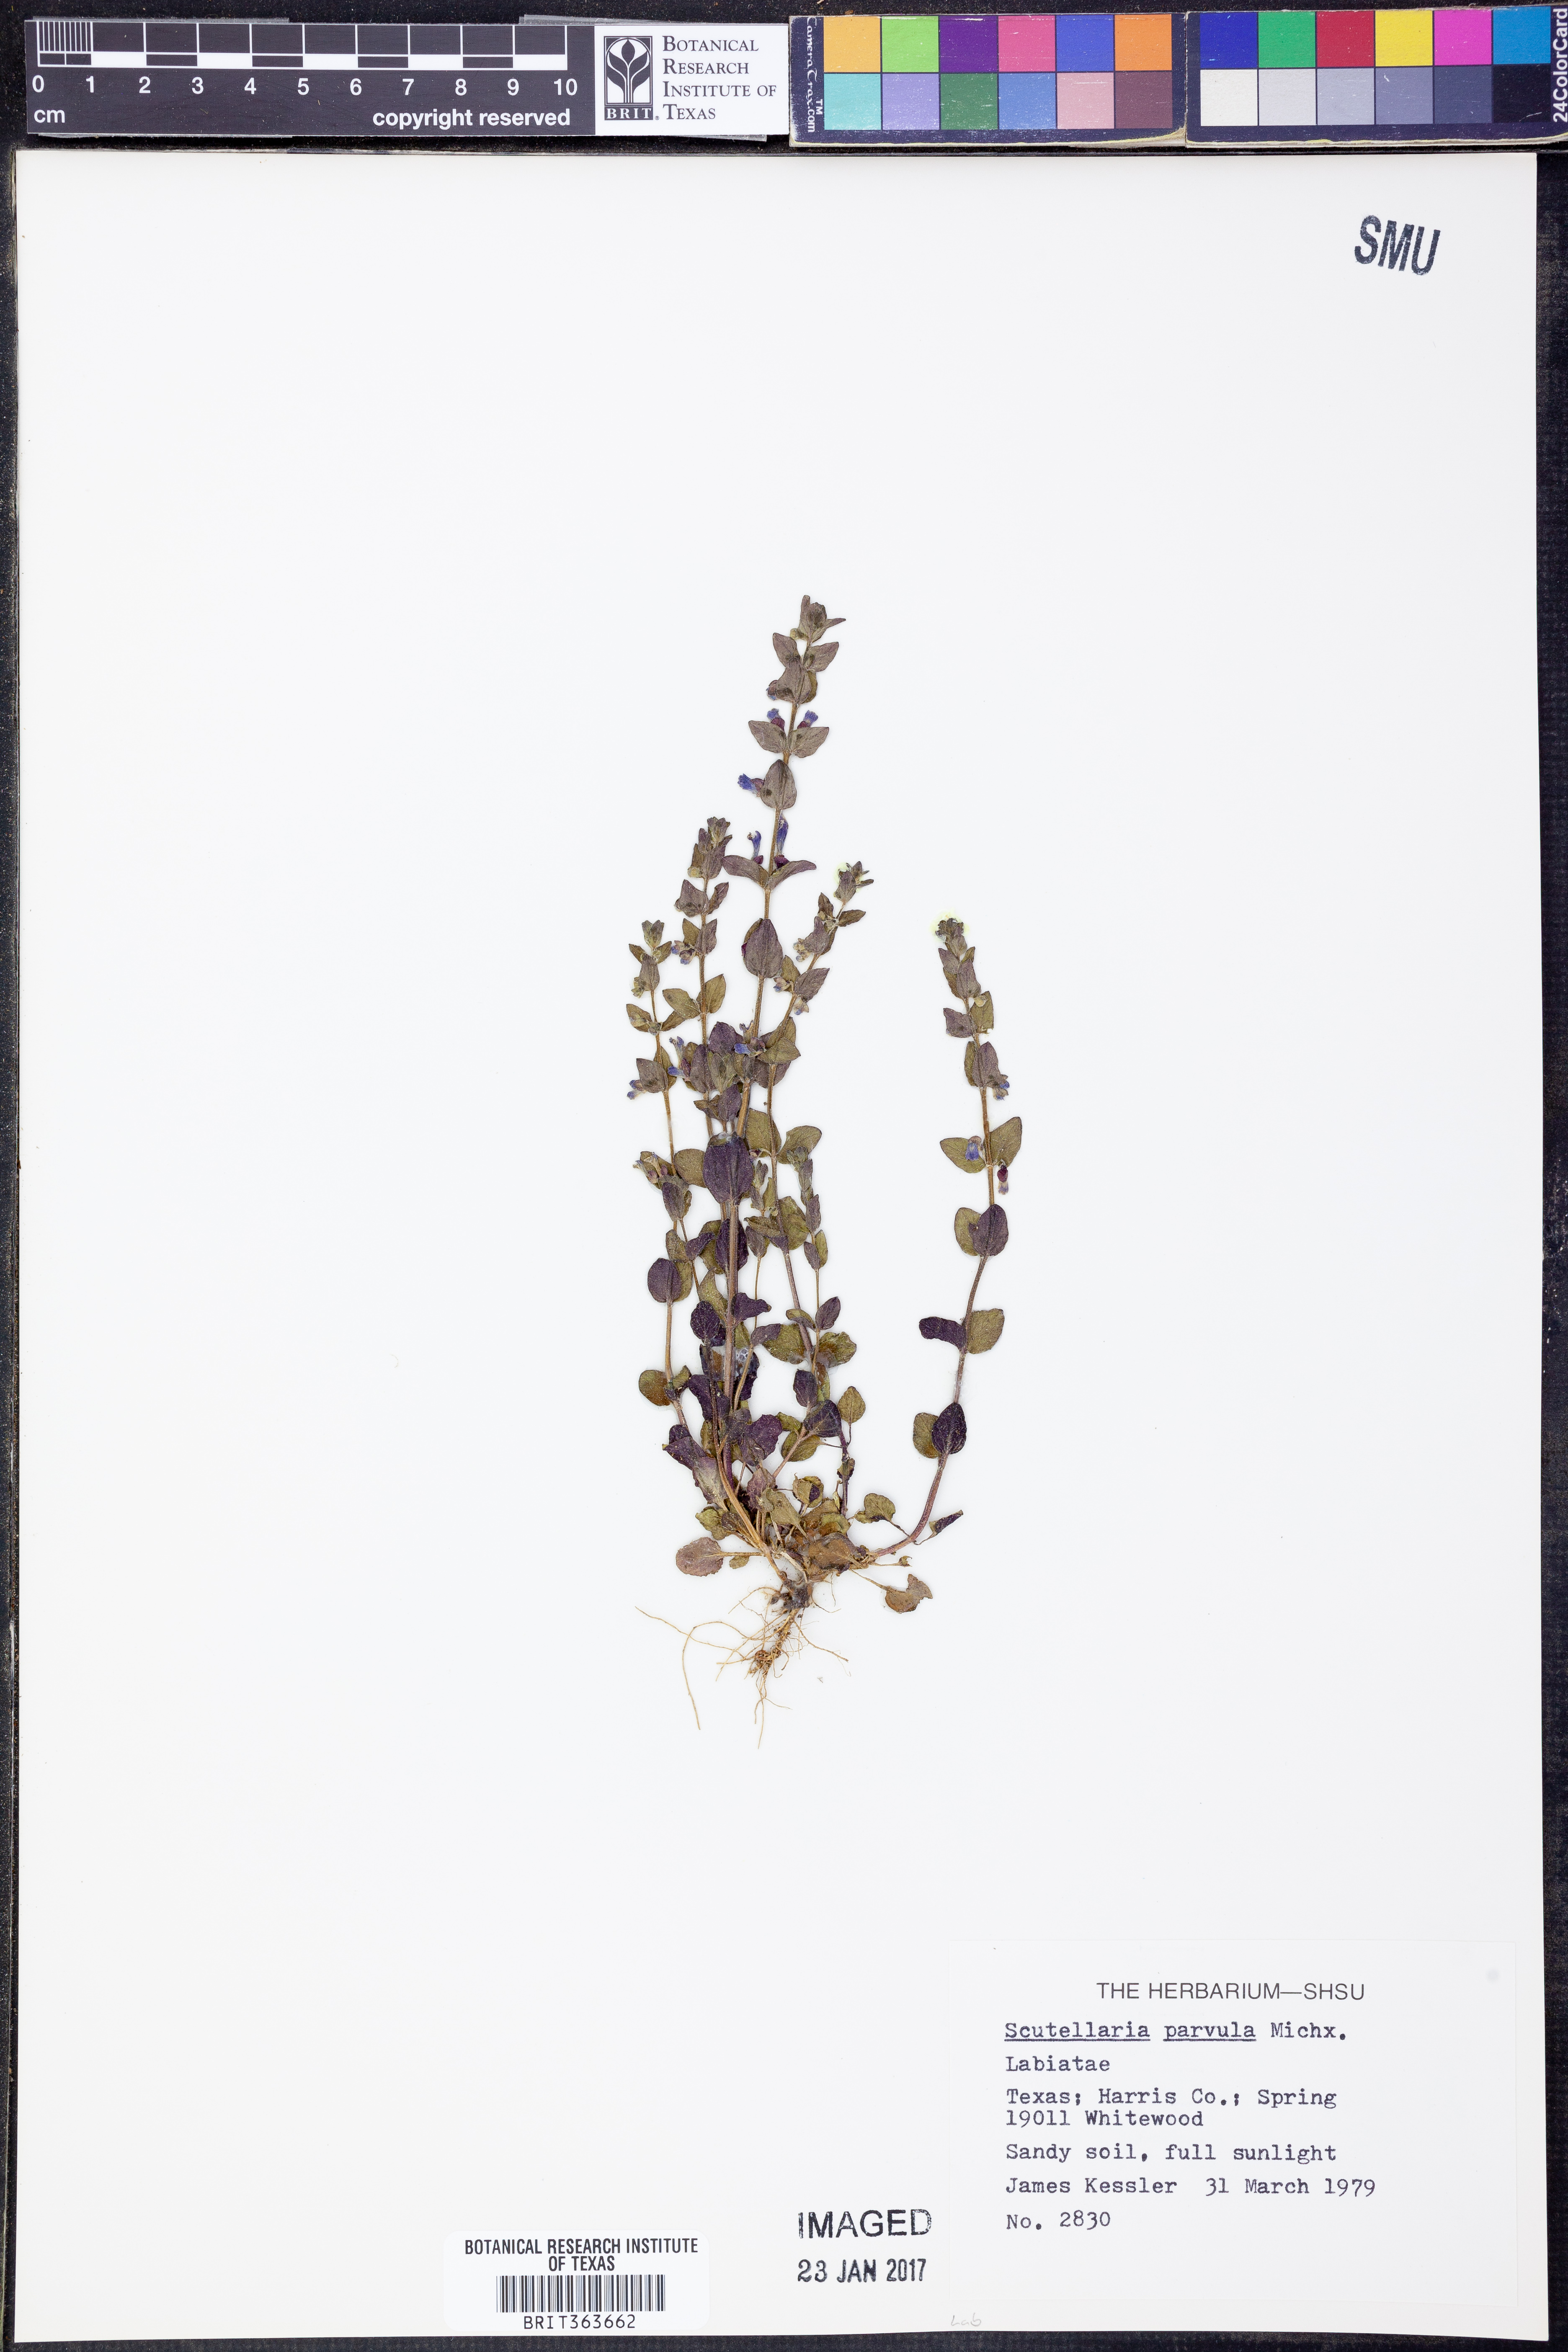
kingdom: Plantae
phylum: Tracheophyta
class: Magnoliopsida
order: Lamiales
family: Lamiaceae
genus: Scutellaria
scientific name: Scutellaria parvula
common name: Little scullcap
